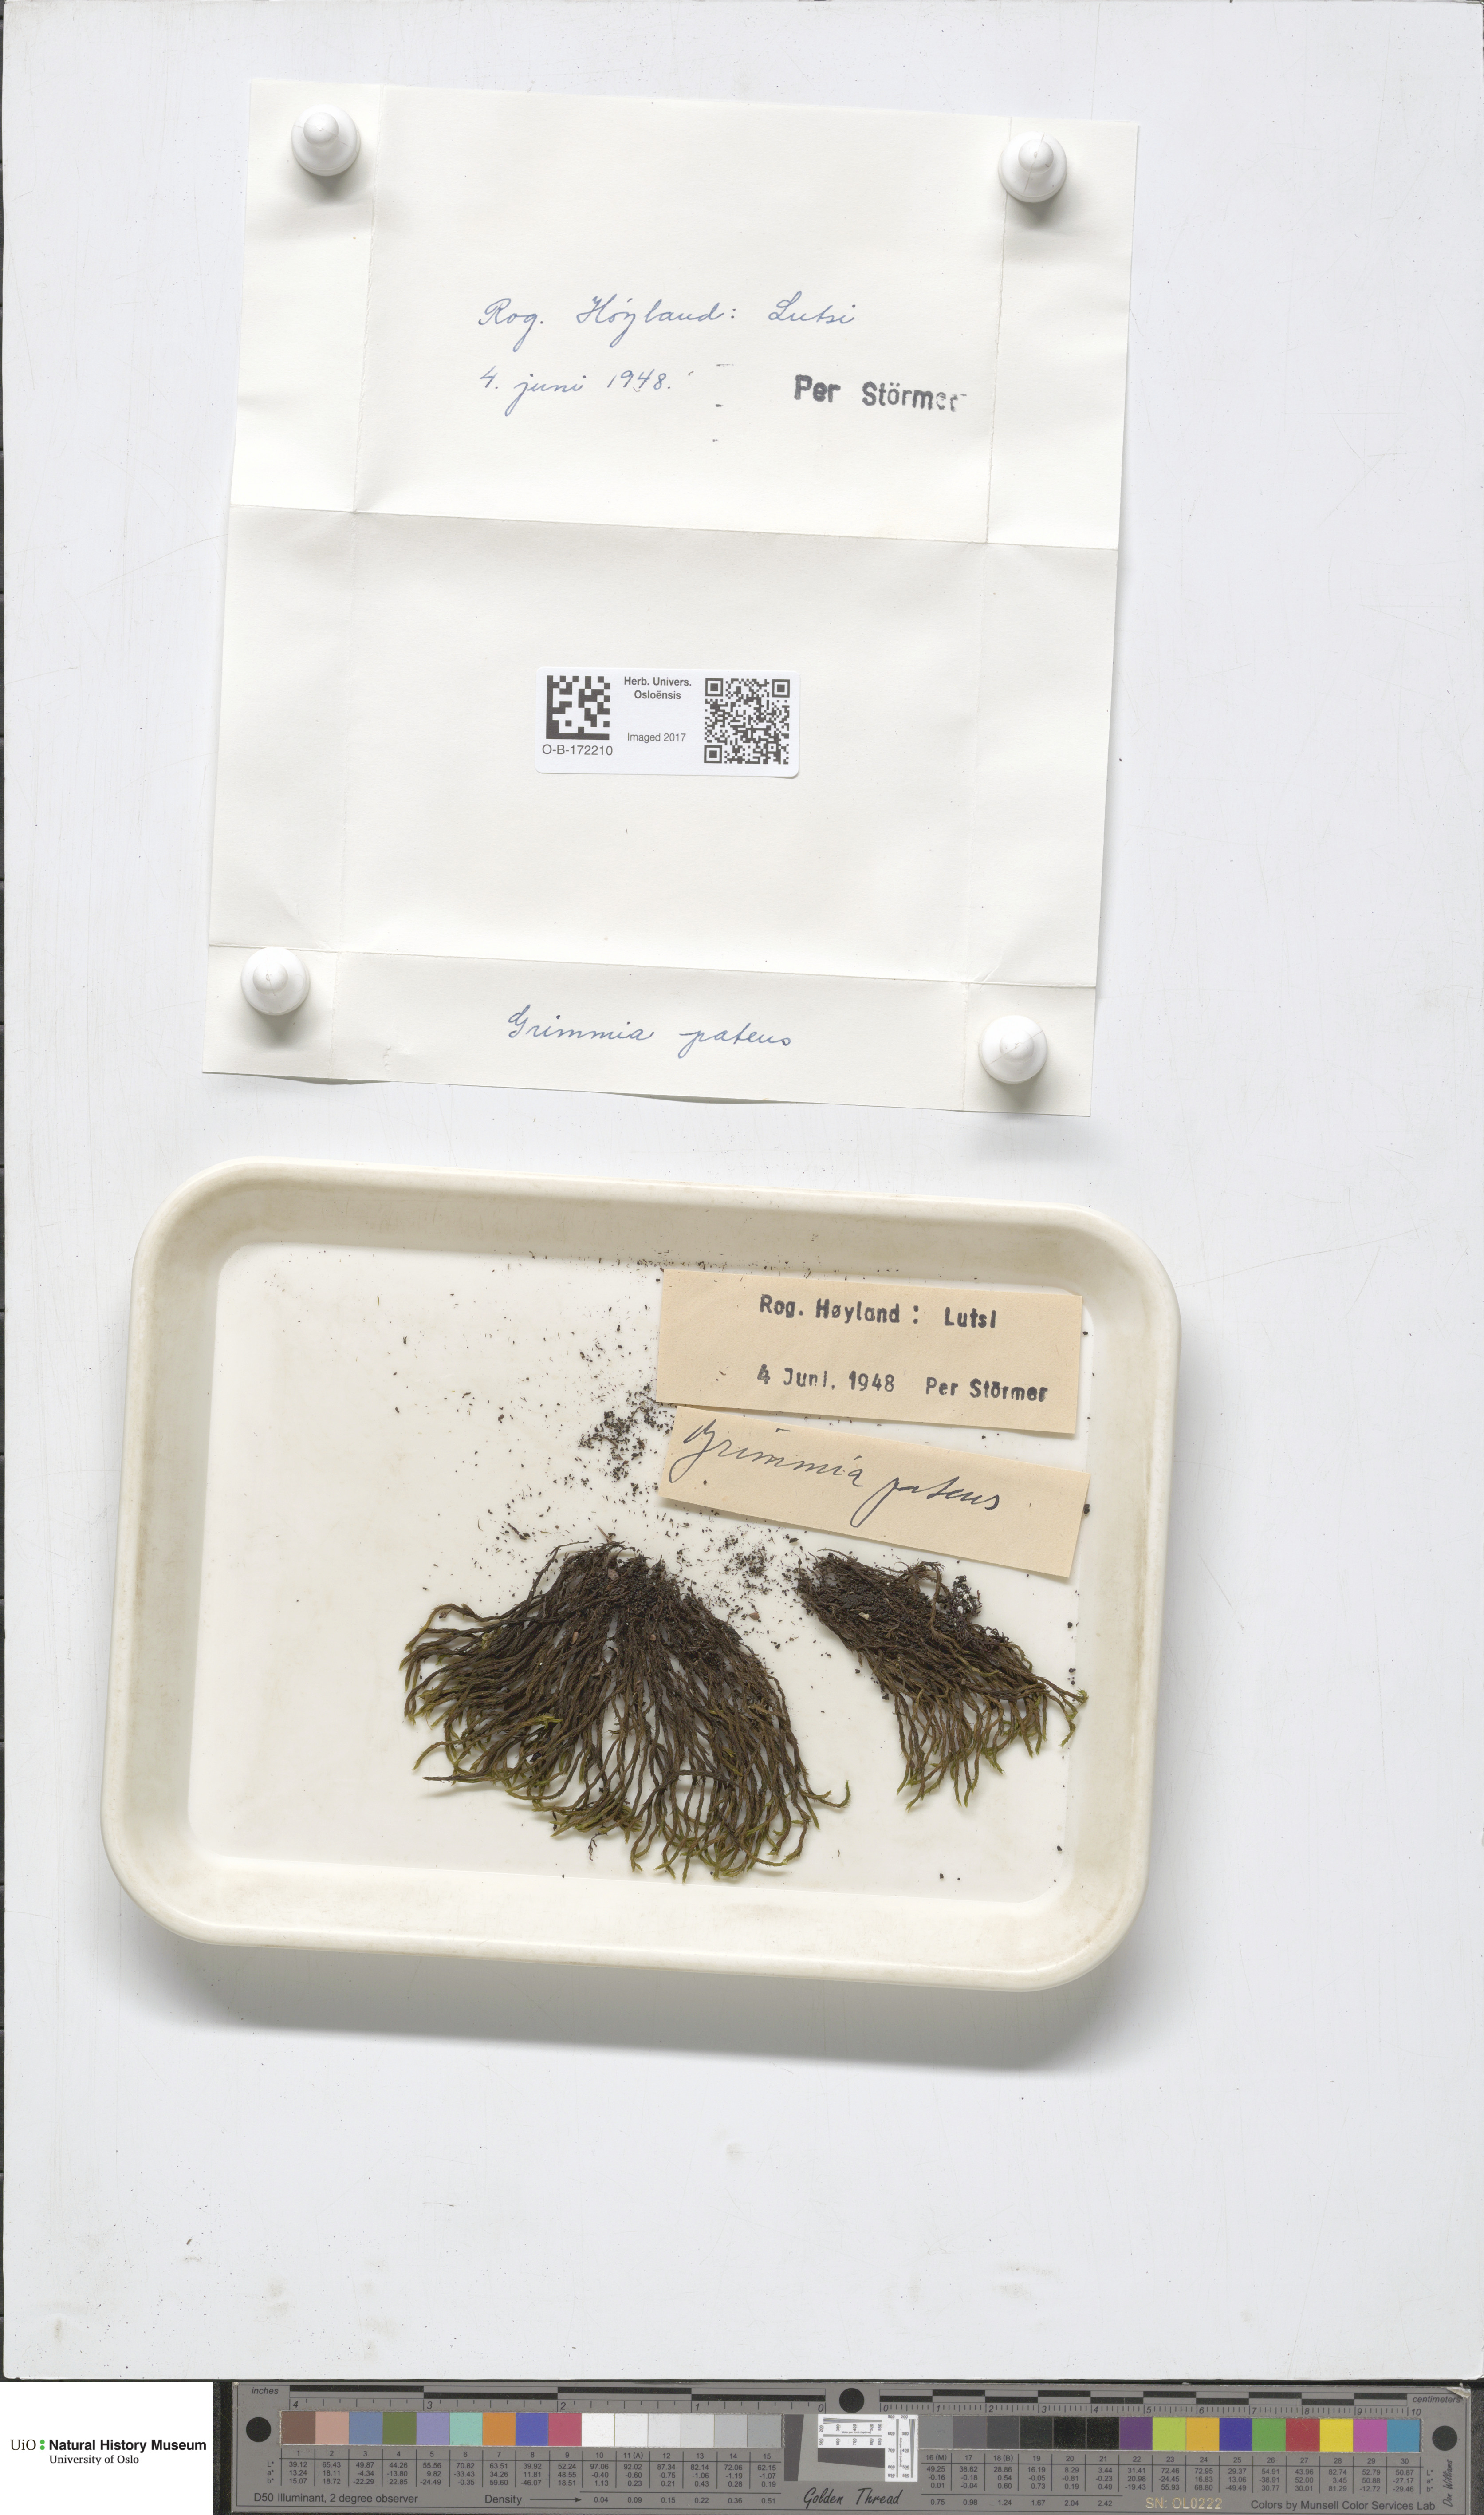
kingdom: Plantae
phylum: Bryophyta
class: Bryopsida
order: Grimmiales
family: Grimmiaceae
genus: Grimmia
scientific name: Grimmia ramondii
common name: Spreading-leaved grimmia
